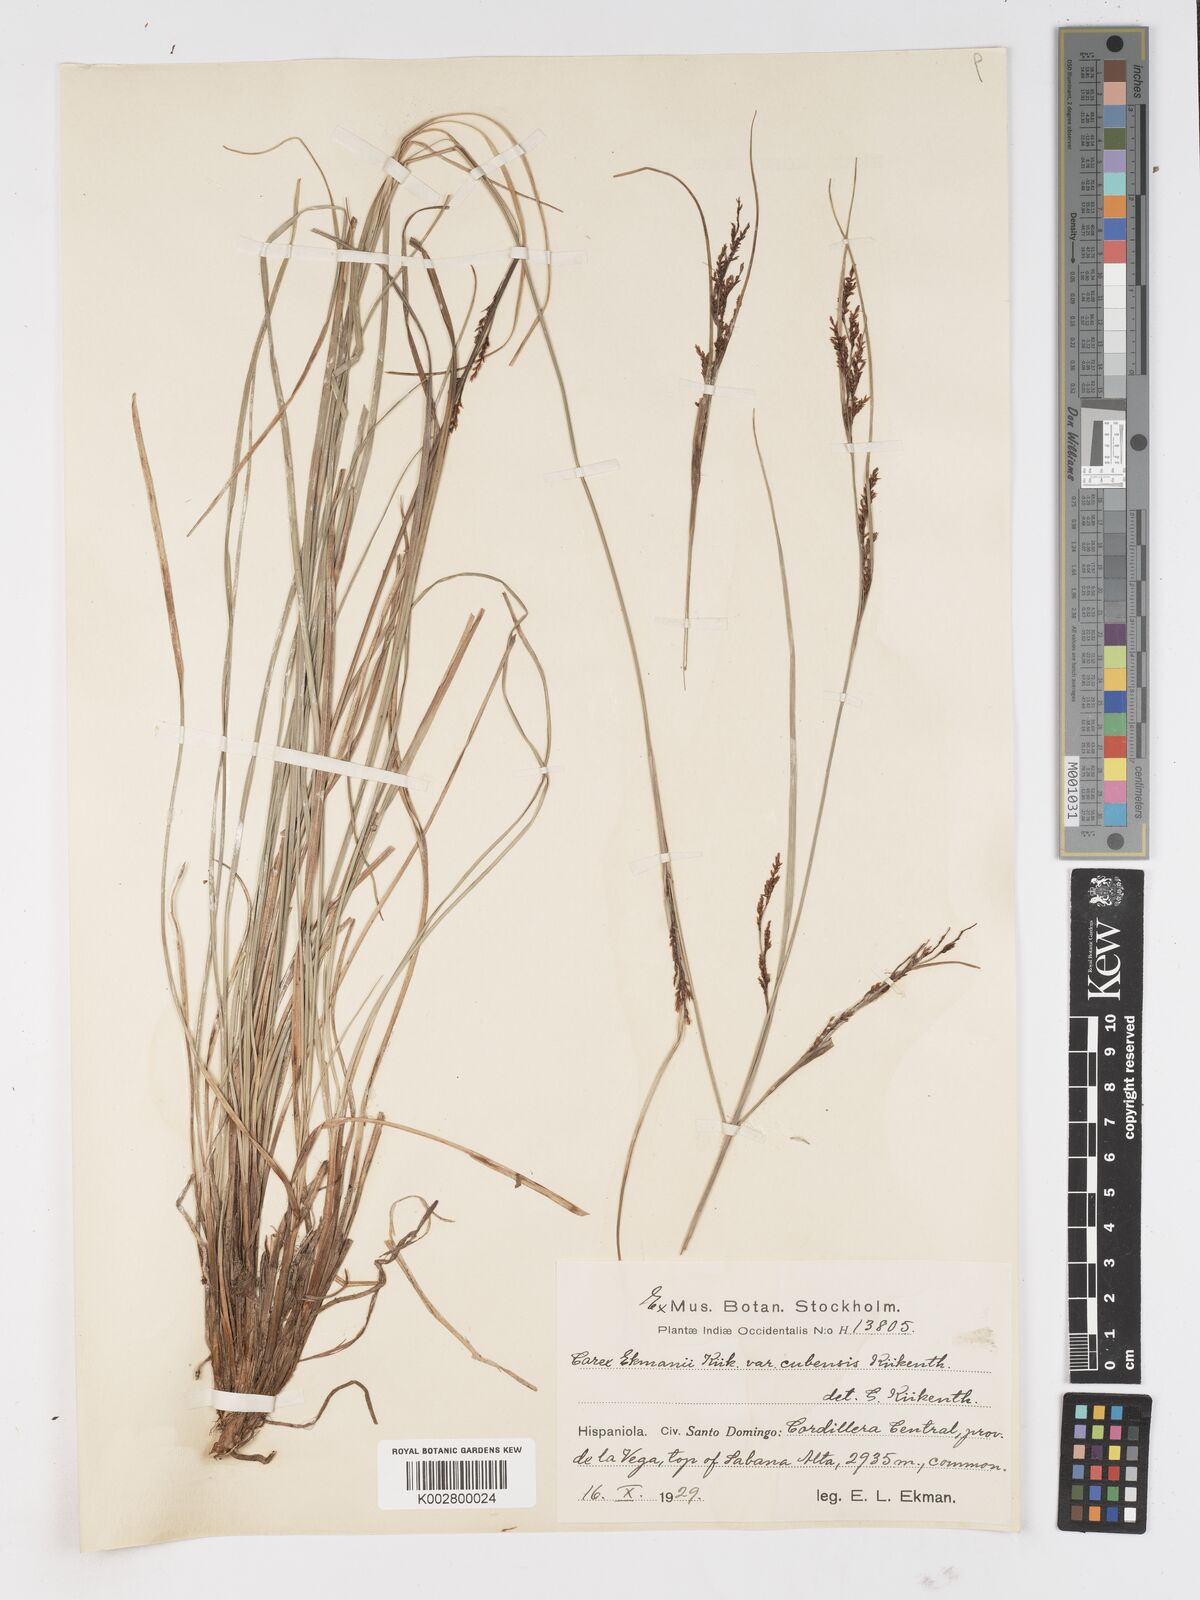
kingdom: Plantae
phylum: Tracheophyta
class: Liliopsida
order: Poales
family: Cyperaceae
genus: Carex
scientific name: Carex ekmanii
